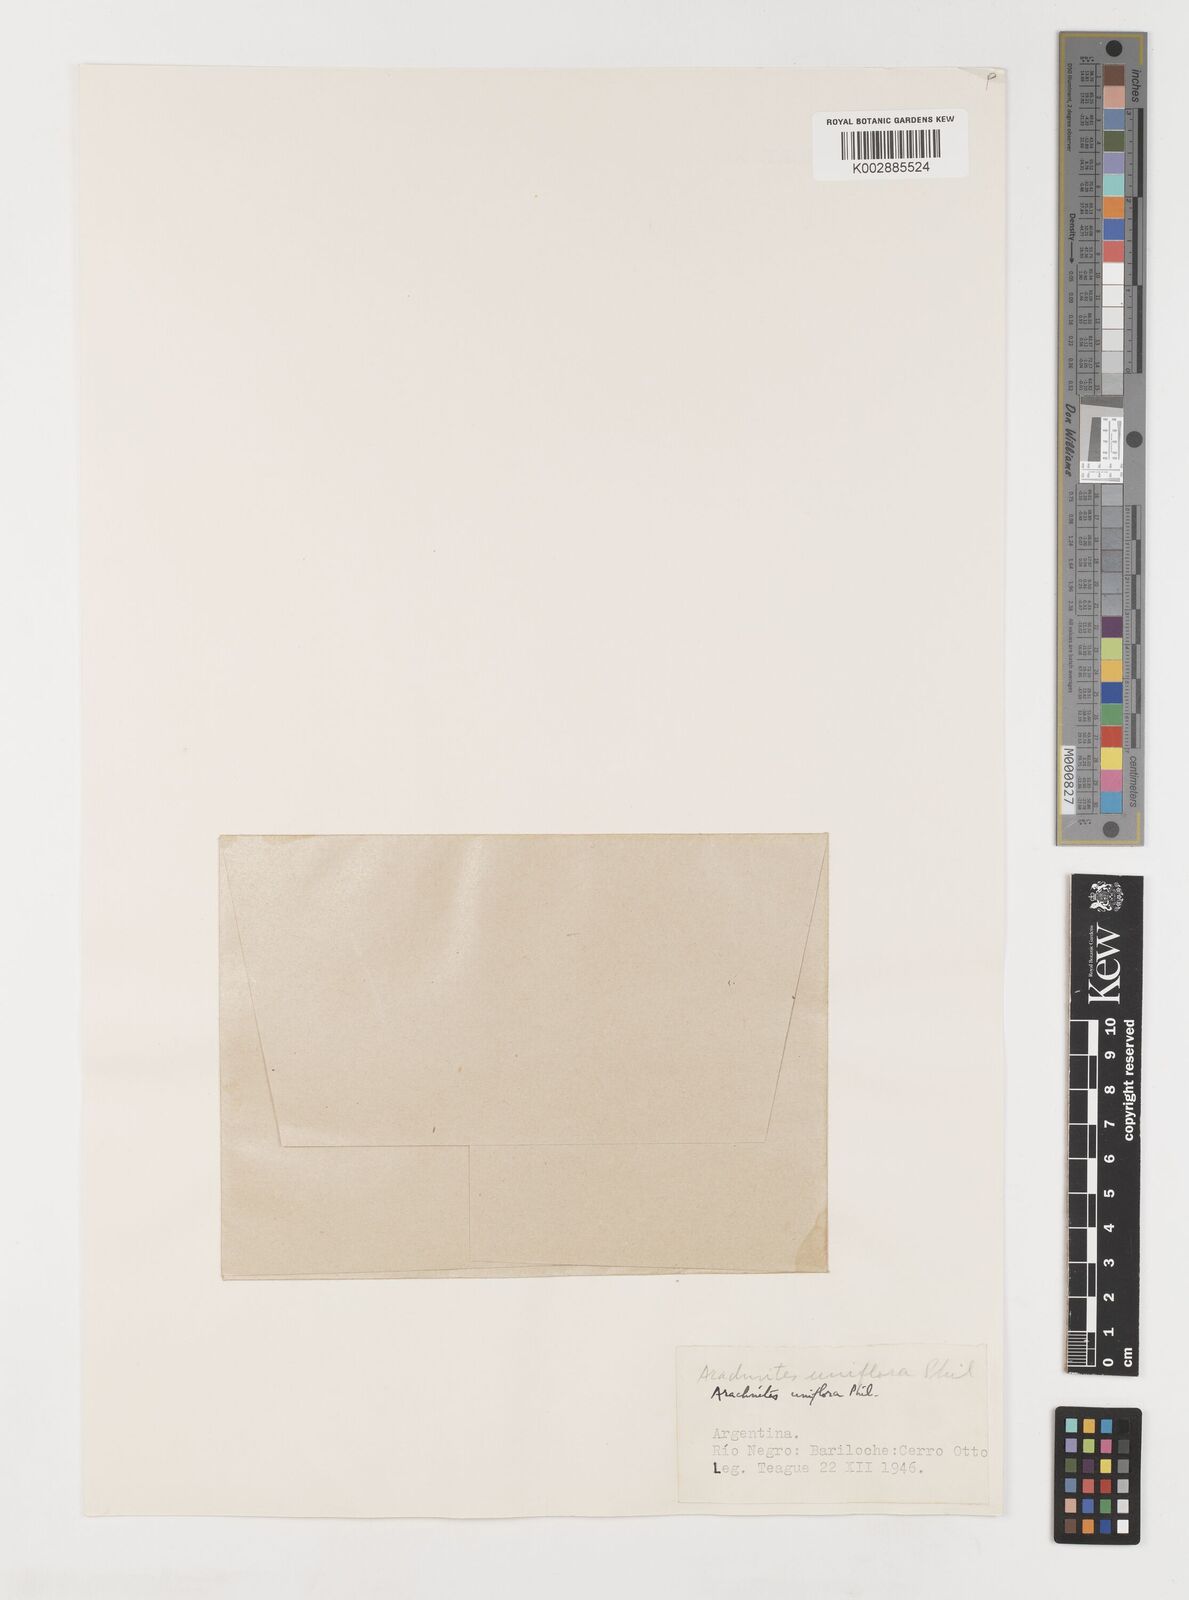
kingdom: Plantae
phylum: Tracheophyta
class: Liliopsida
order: Liliales
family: Corsiaceae
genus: Arachnitis
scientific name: Arachnitis uniflora
